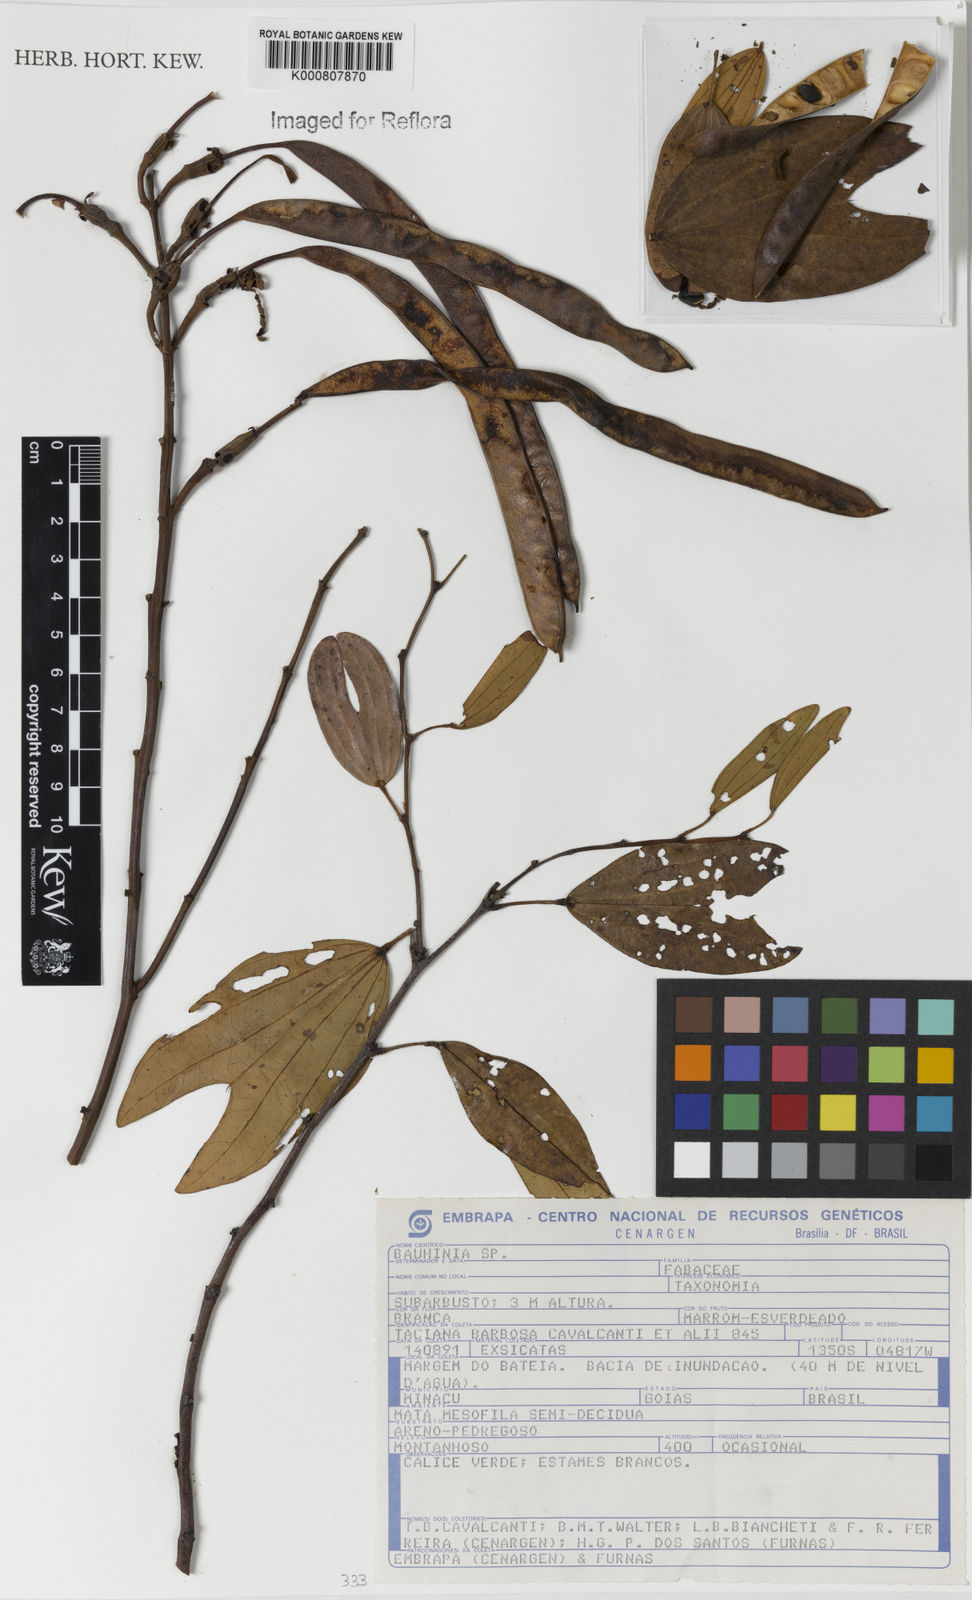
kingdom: Plantae
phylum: Tracheophyta
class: Magnoliopsida
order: Fabales
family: Fabaceae
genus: Bauhinia
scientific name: Bauhinia
